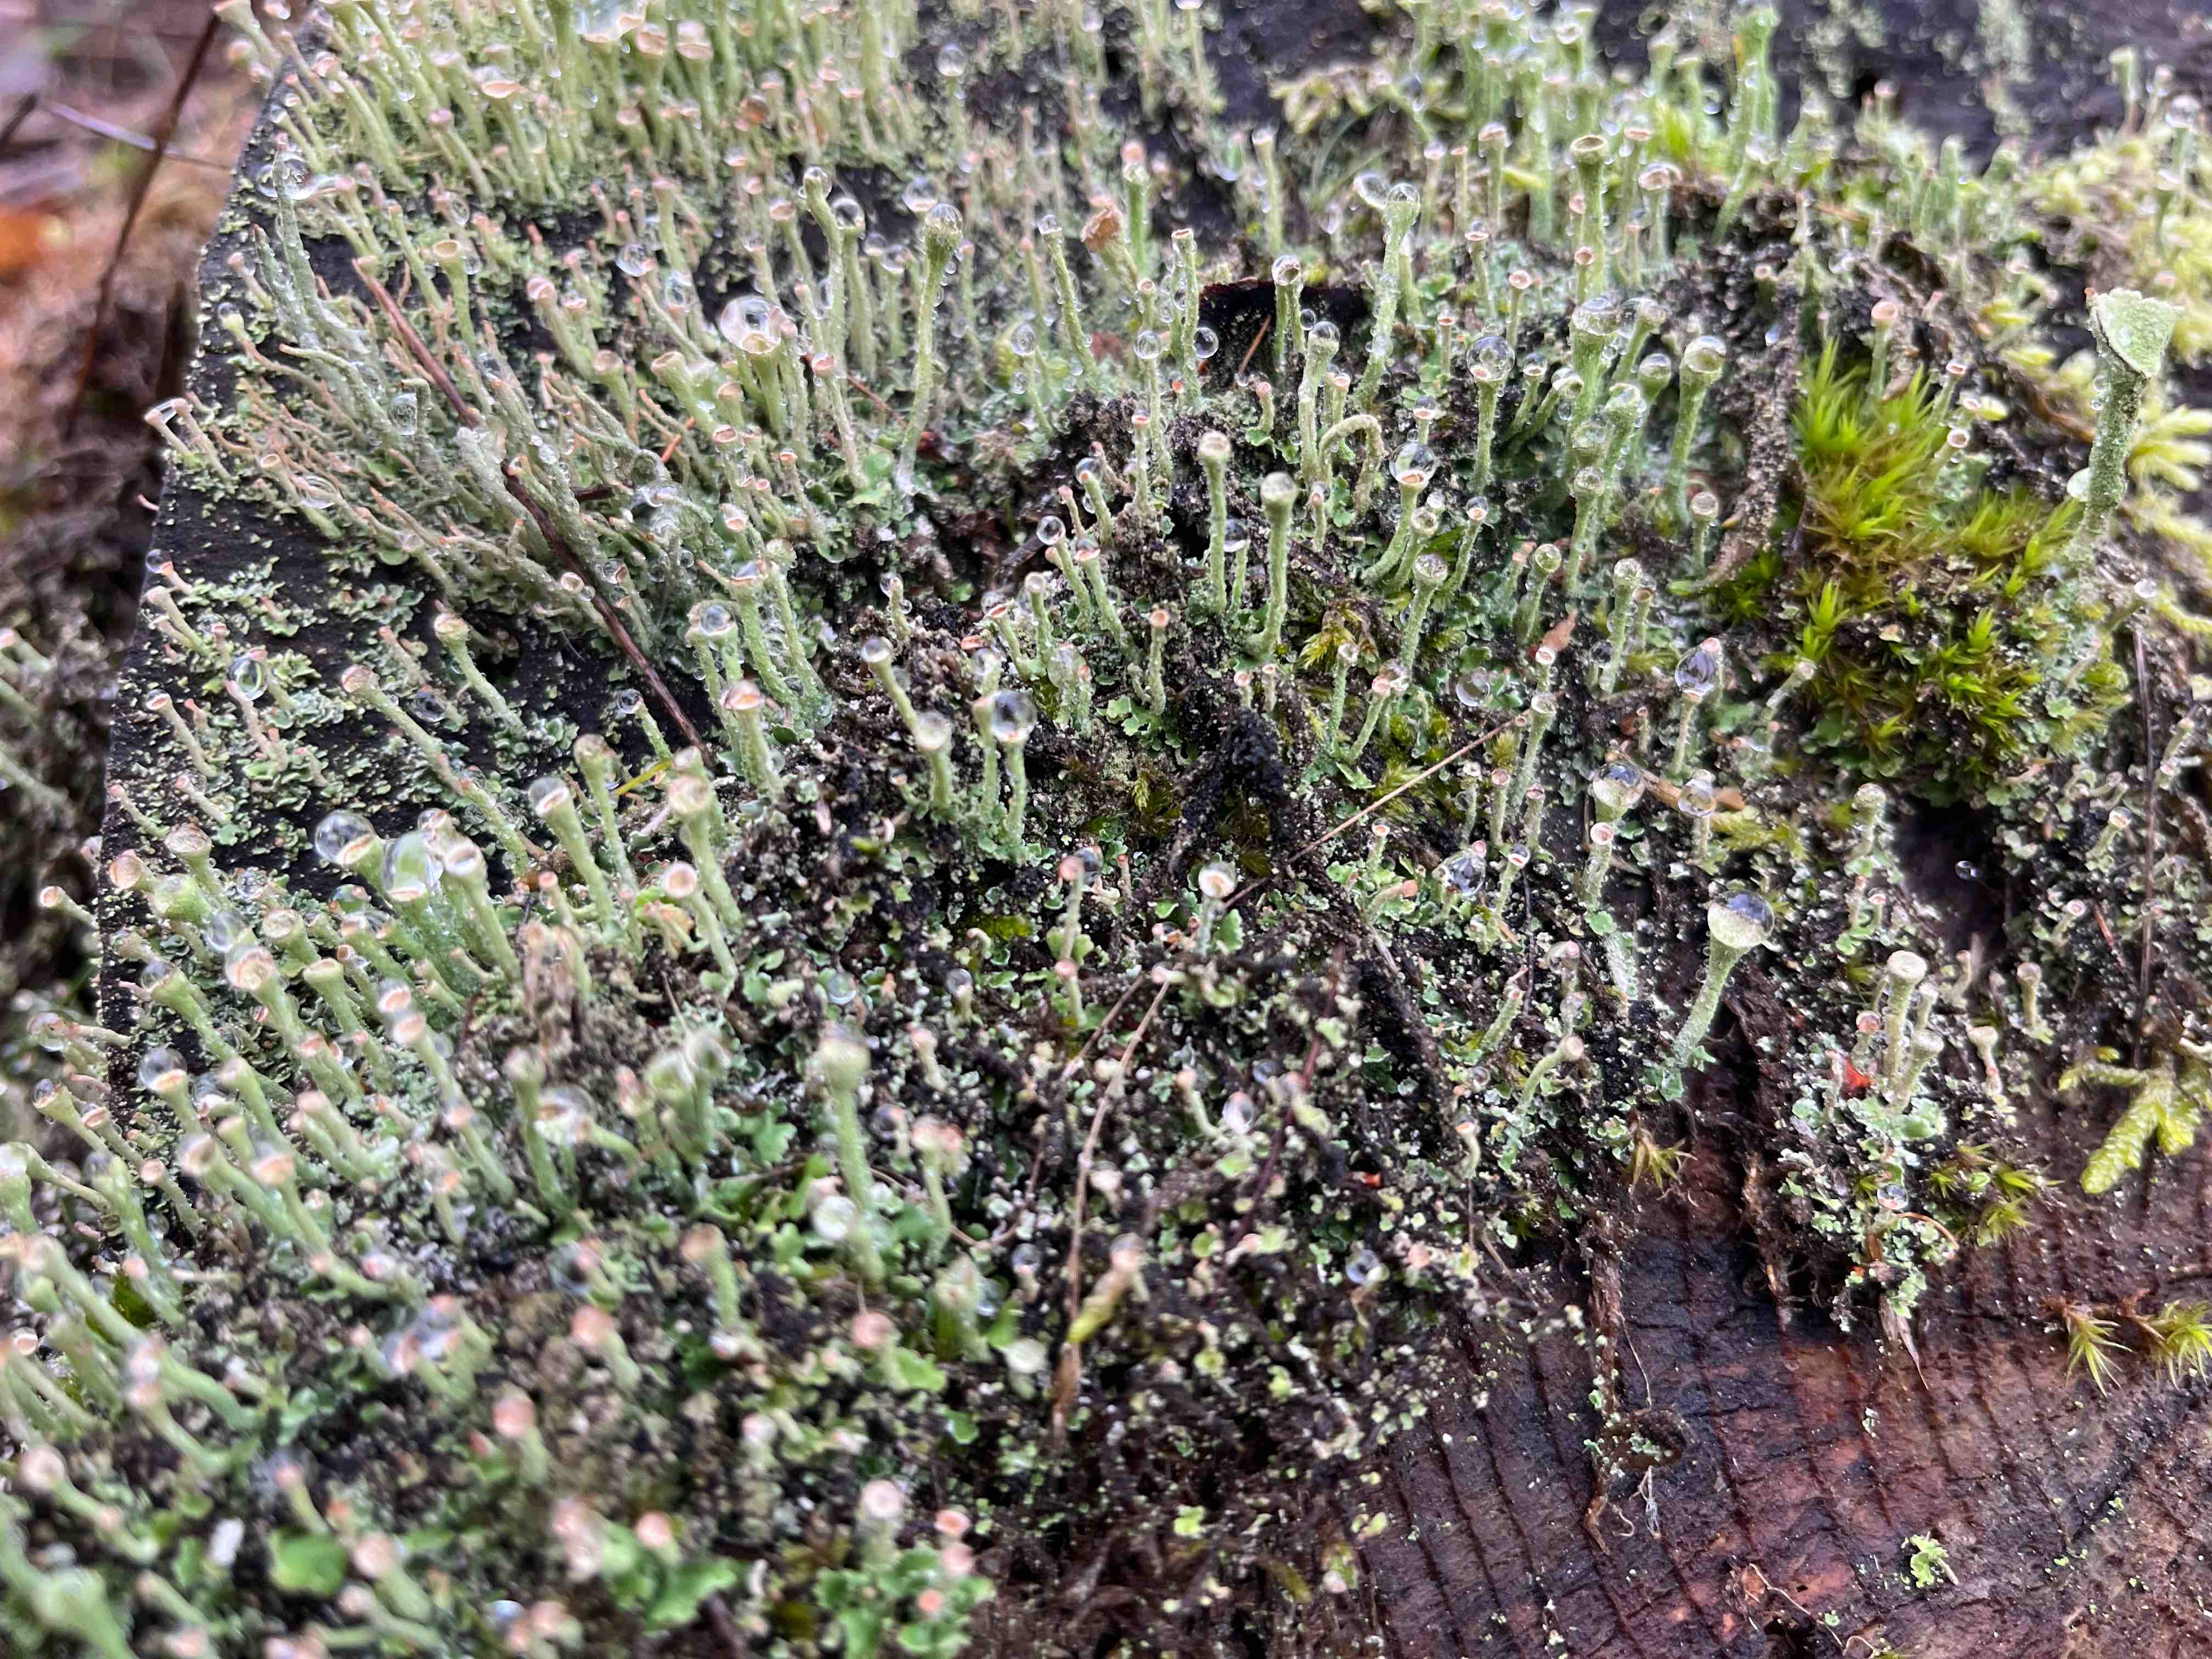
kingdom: Fungi
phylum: Ascomycota
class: Lecanoromycetes
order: Lecanorales
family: Cladoniaceae
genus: Cladonia
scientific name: Cladonia fimbriata
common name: bleggrøn bægerlav
